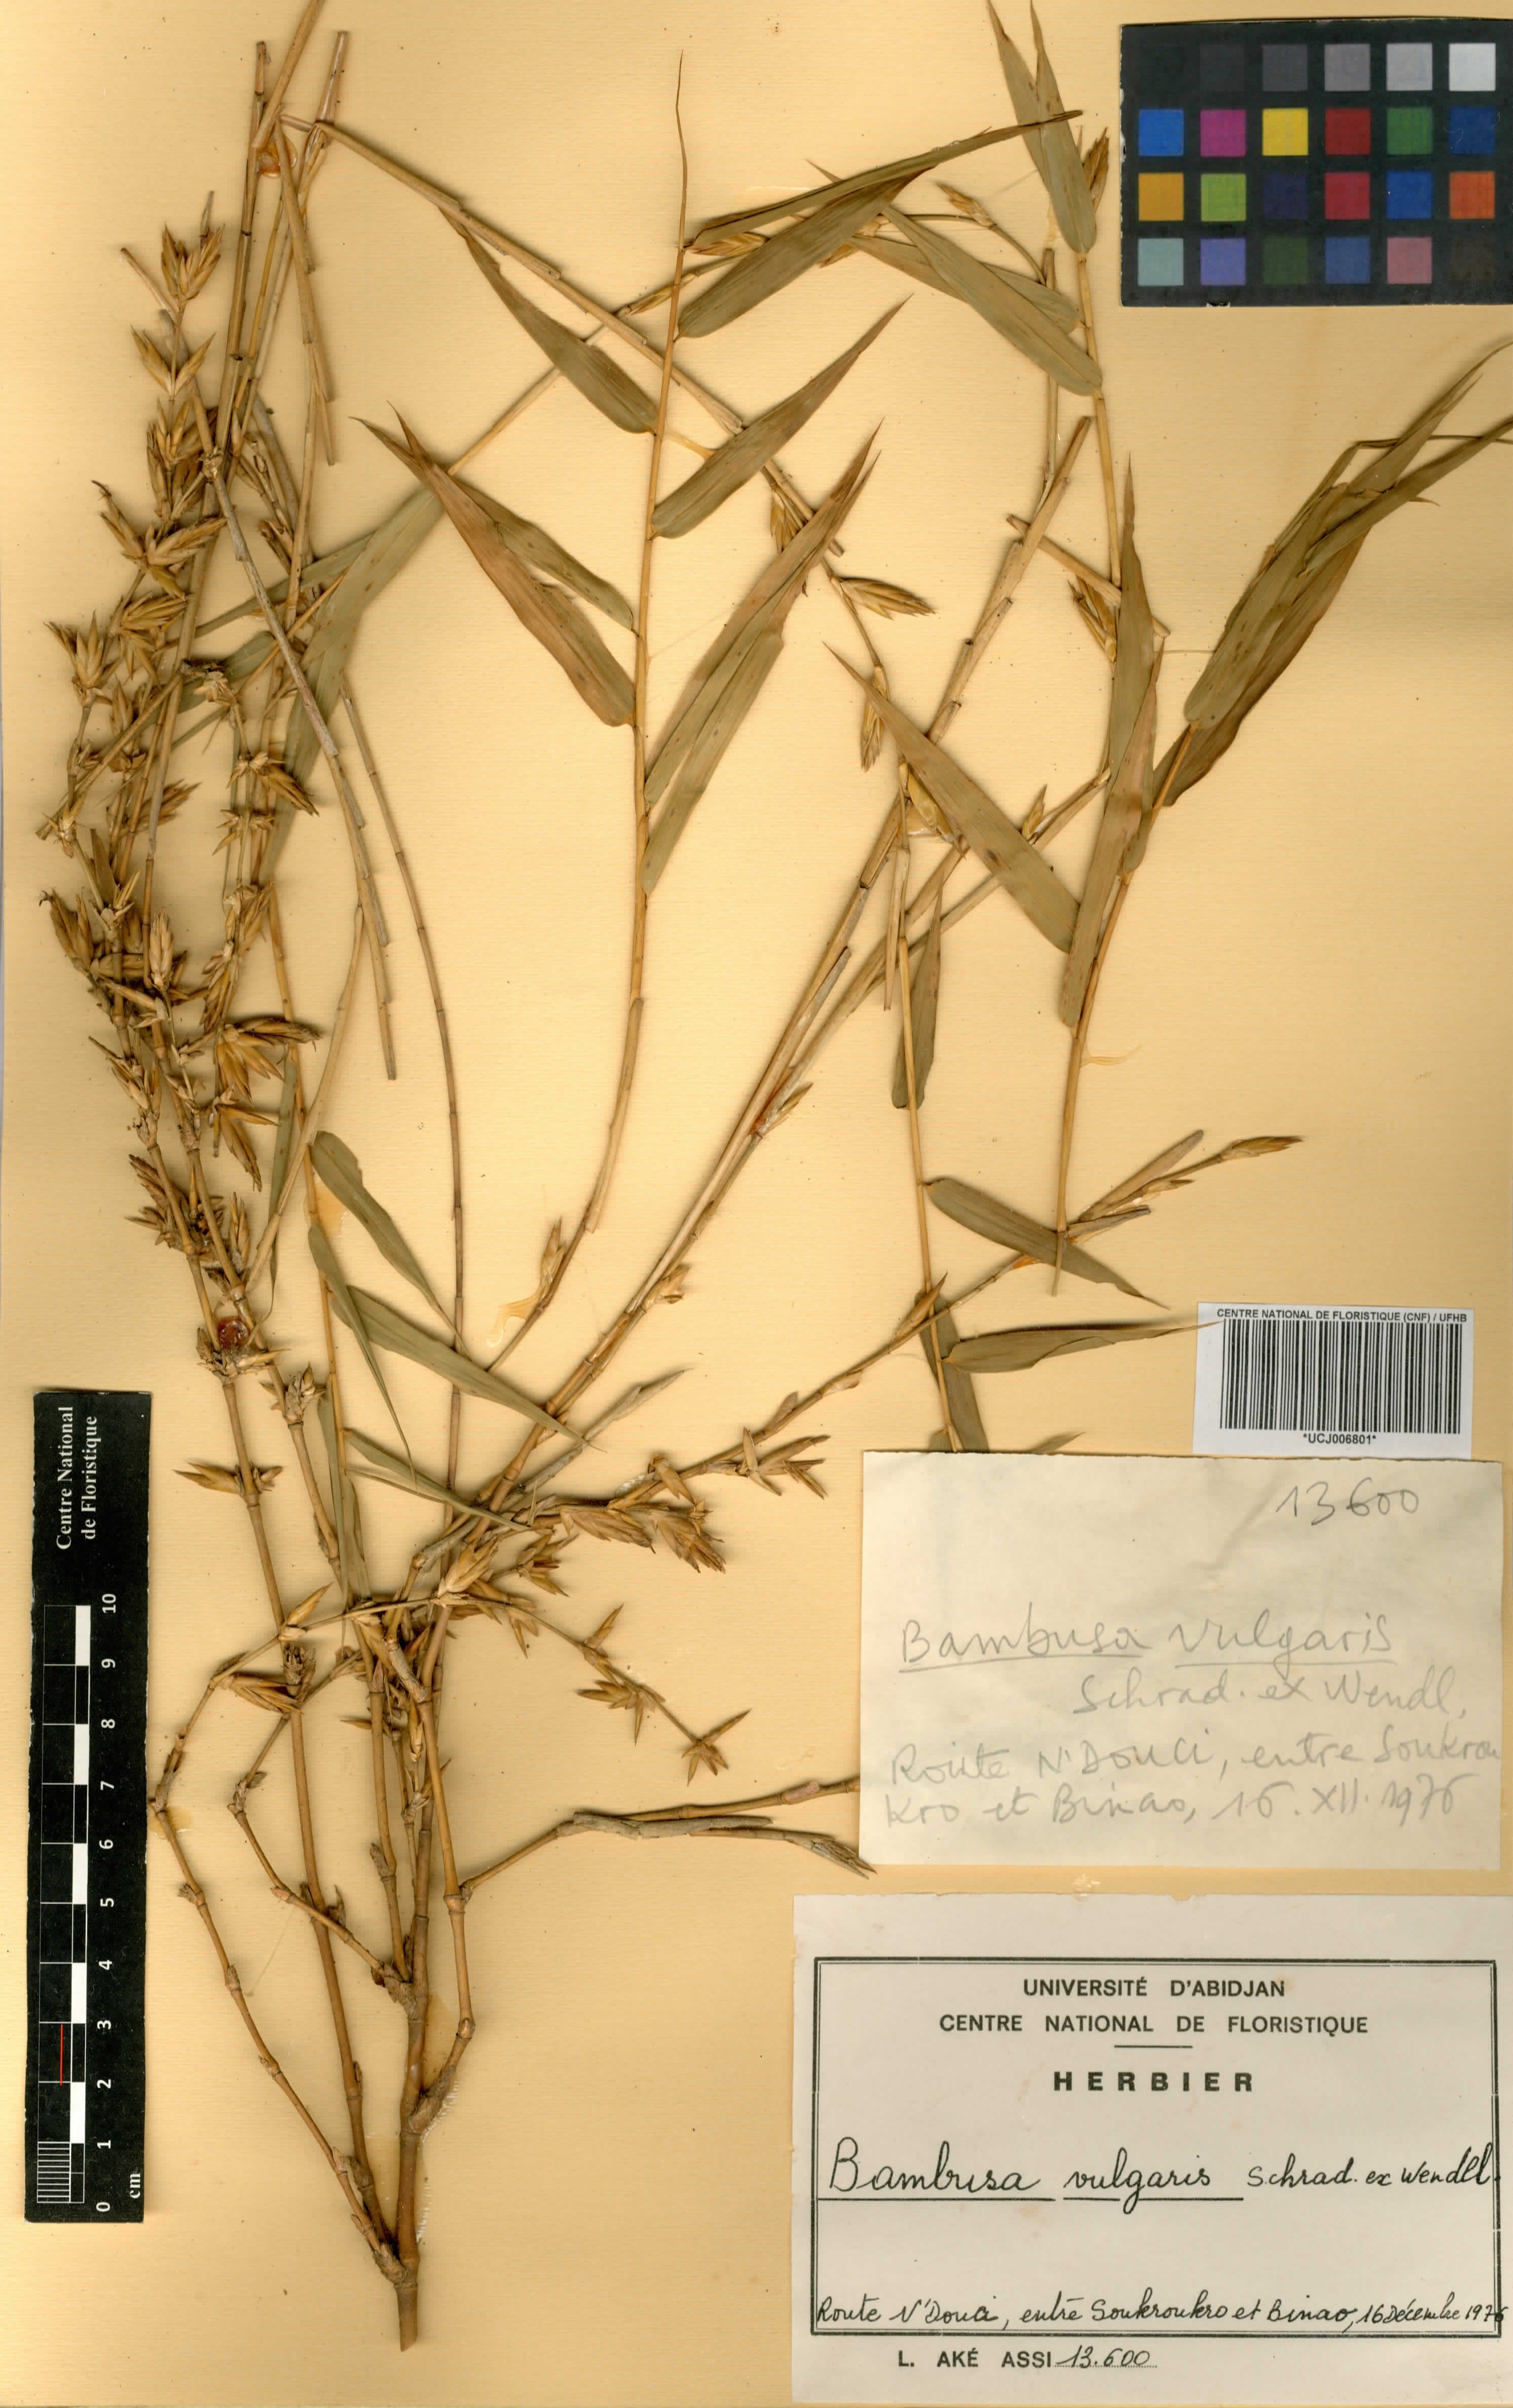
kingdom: Plantae
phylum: Tracheophyta
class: Liliopsida
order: Poales
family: Poaceae
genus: Bambusa
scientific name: Bambusa vulgaris
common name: Common bamboo
